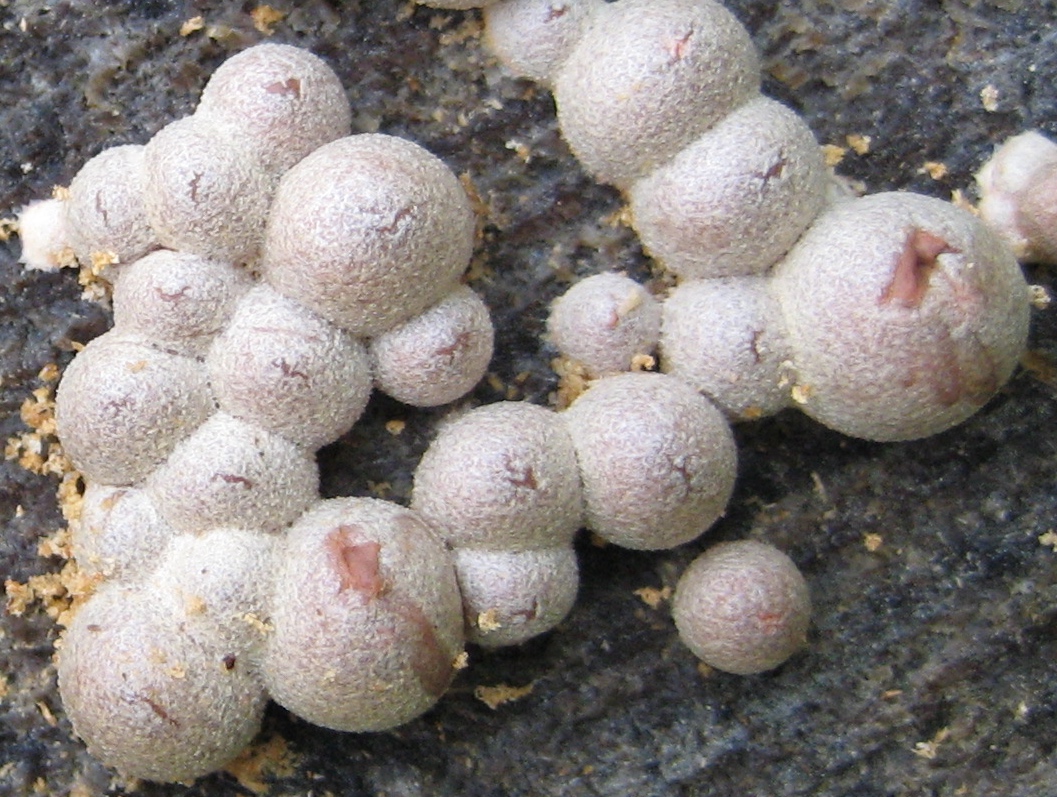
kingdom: Protozoa
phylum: Mycetozoa
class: Myxomycetes
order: Cribrariales
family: Tubiferaceae
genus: Lycogala
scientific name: Lycogala
